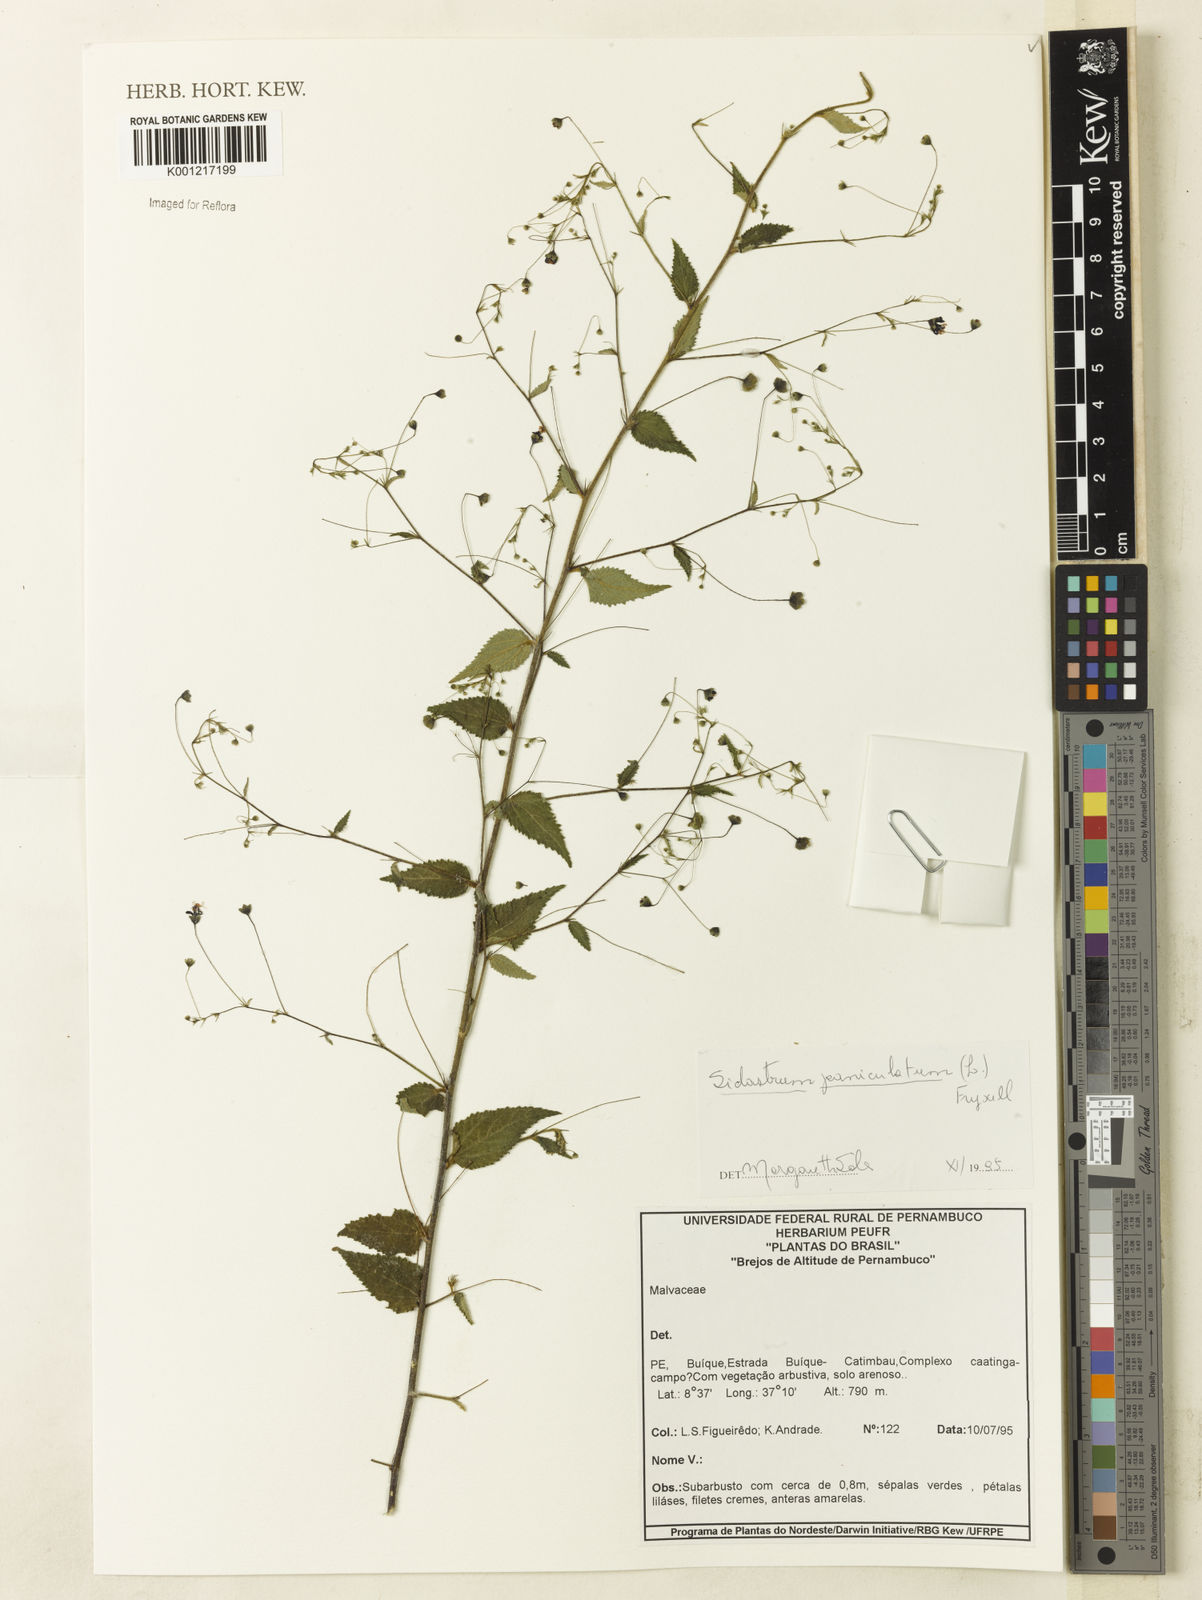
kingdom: Plantae
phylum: Tracheophyta
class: Magnoliopsida
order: Malvales
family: Malvaceae
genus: Sidastrum
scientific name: Sidastrum paniculatum
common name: Panicled sandmallow
